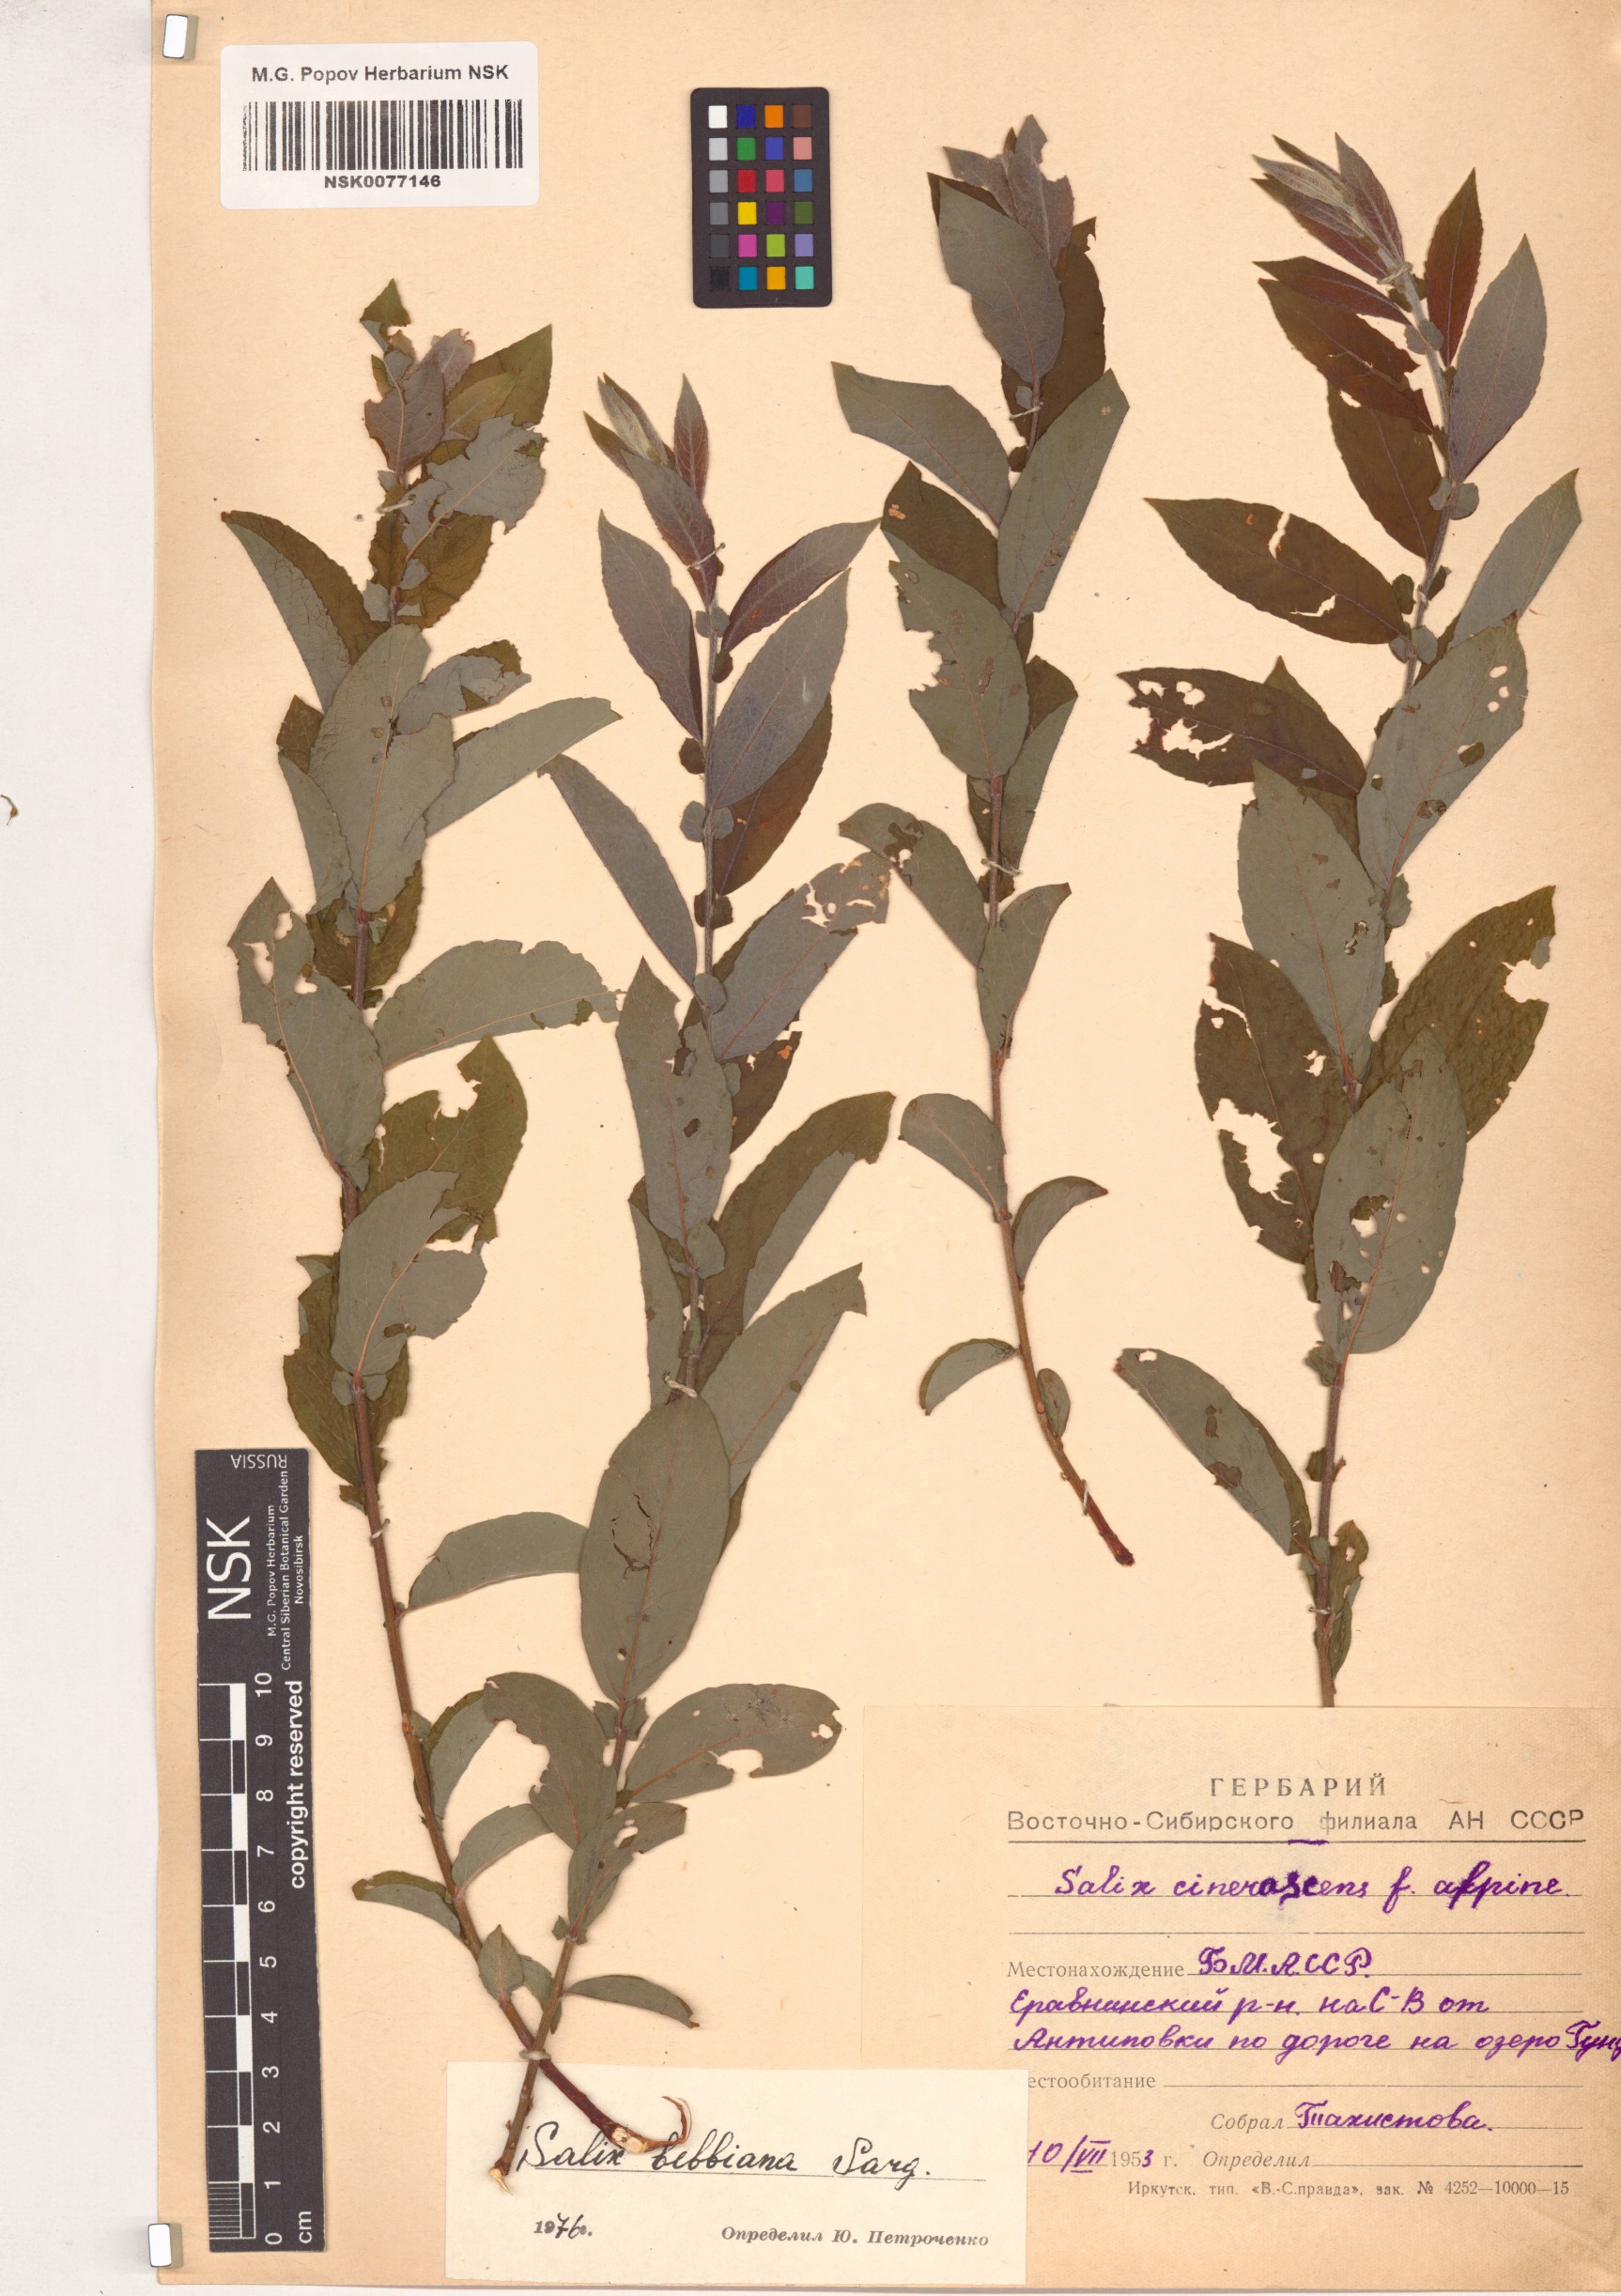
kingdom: Plantae
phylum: Tracheophyta
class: Magnoliopsida
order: Malpighiales
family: Salicaceae
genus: Salix
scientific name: Salix bebbiana
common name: Bebb's willow
